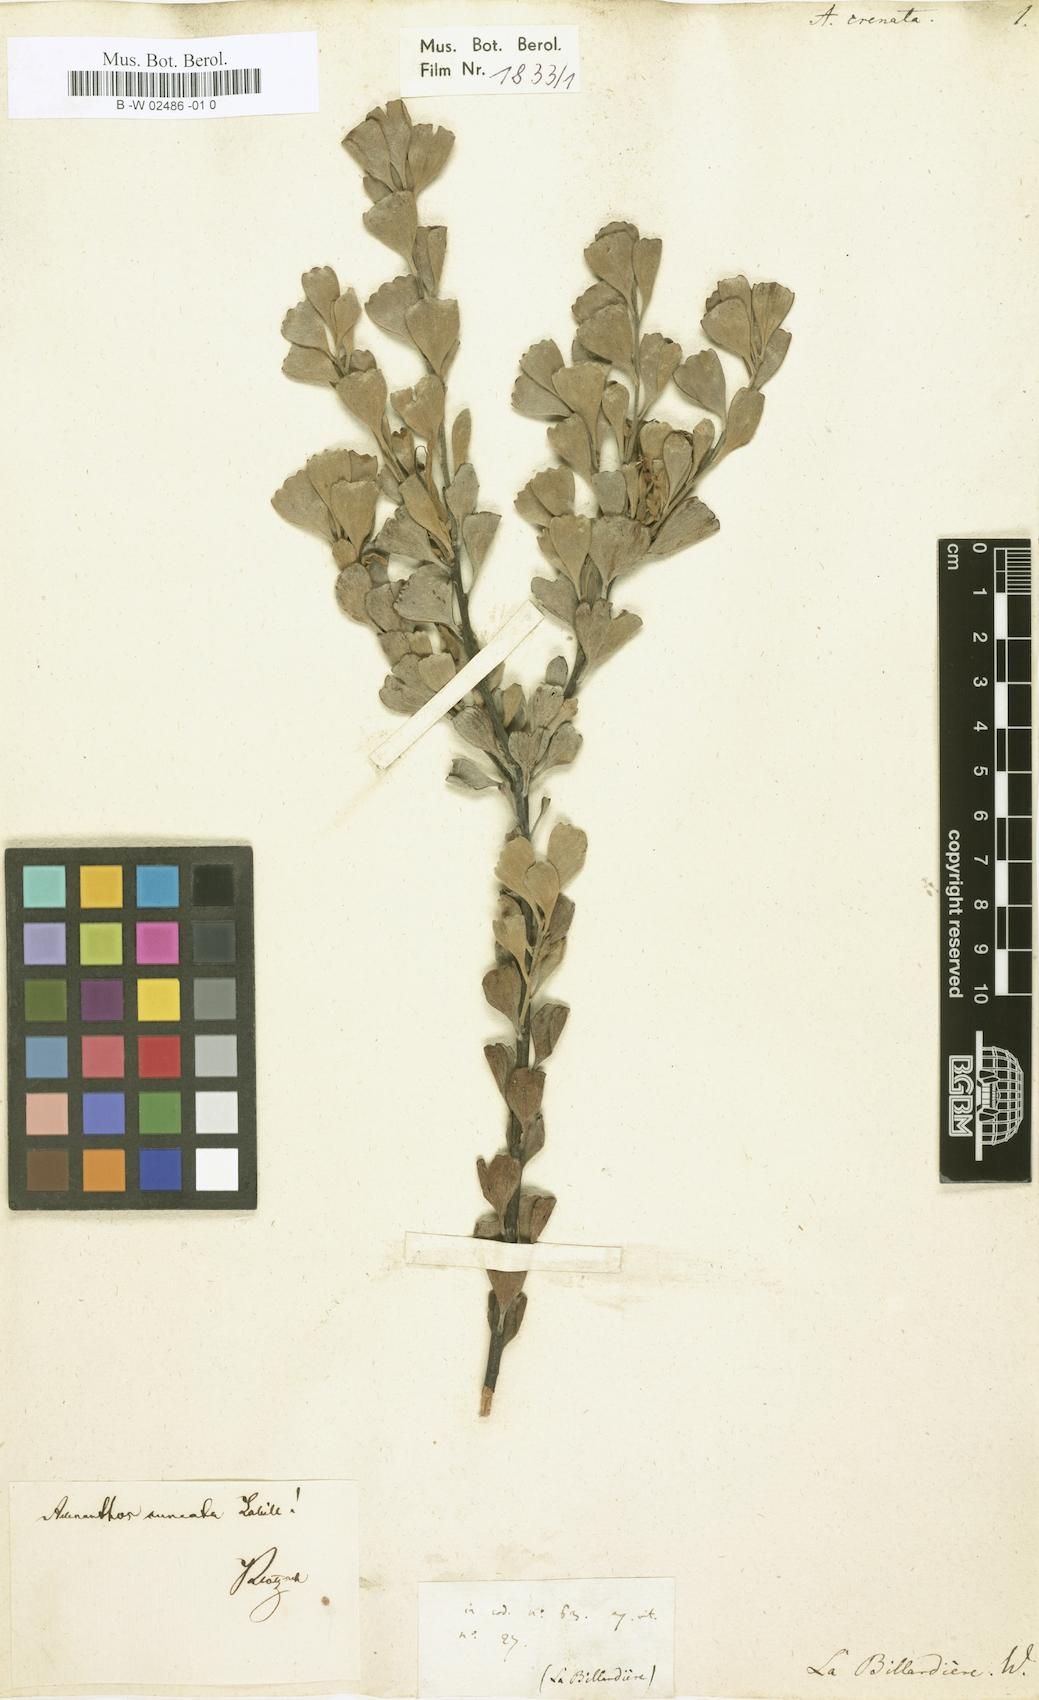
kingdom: Plantae
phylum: Tracheophyta
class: Magnoliopsida
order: Proteales
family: Proteaceae
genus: Adenanthos
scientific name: Adenanthos cuneatus
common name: Flamebush
